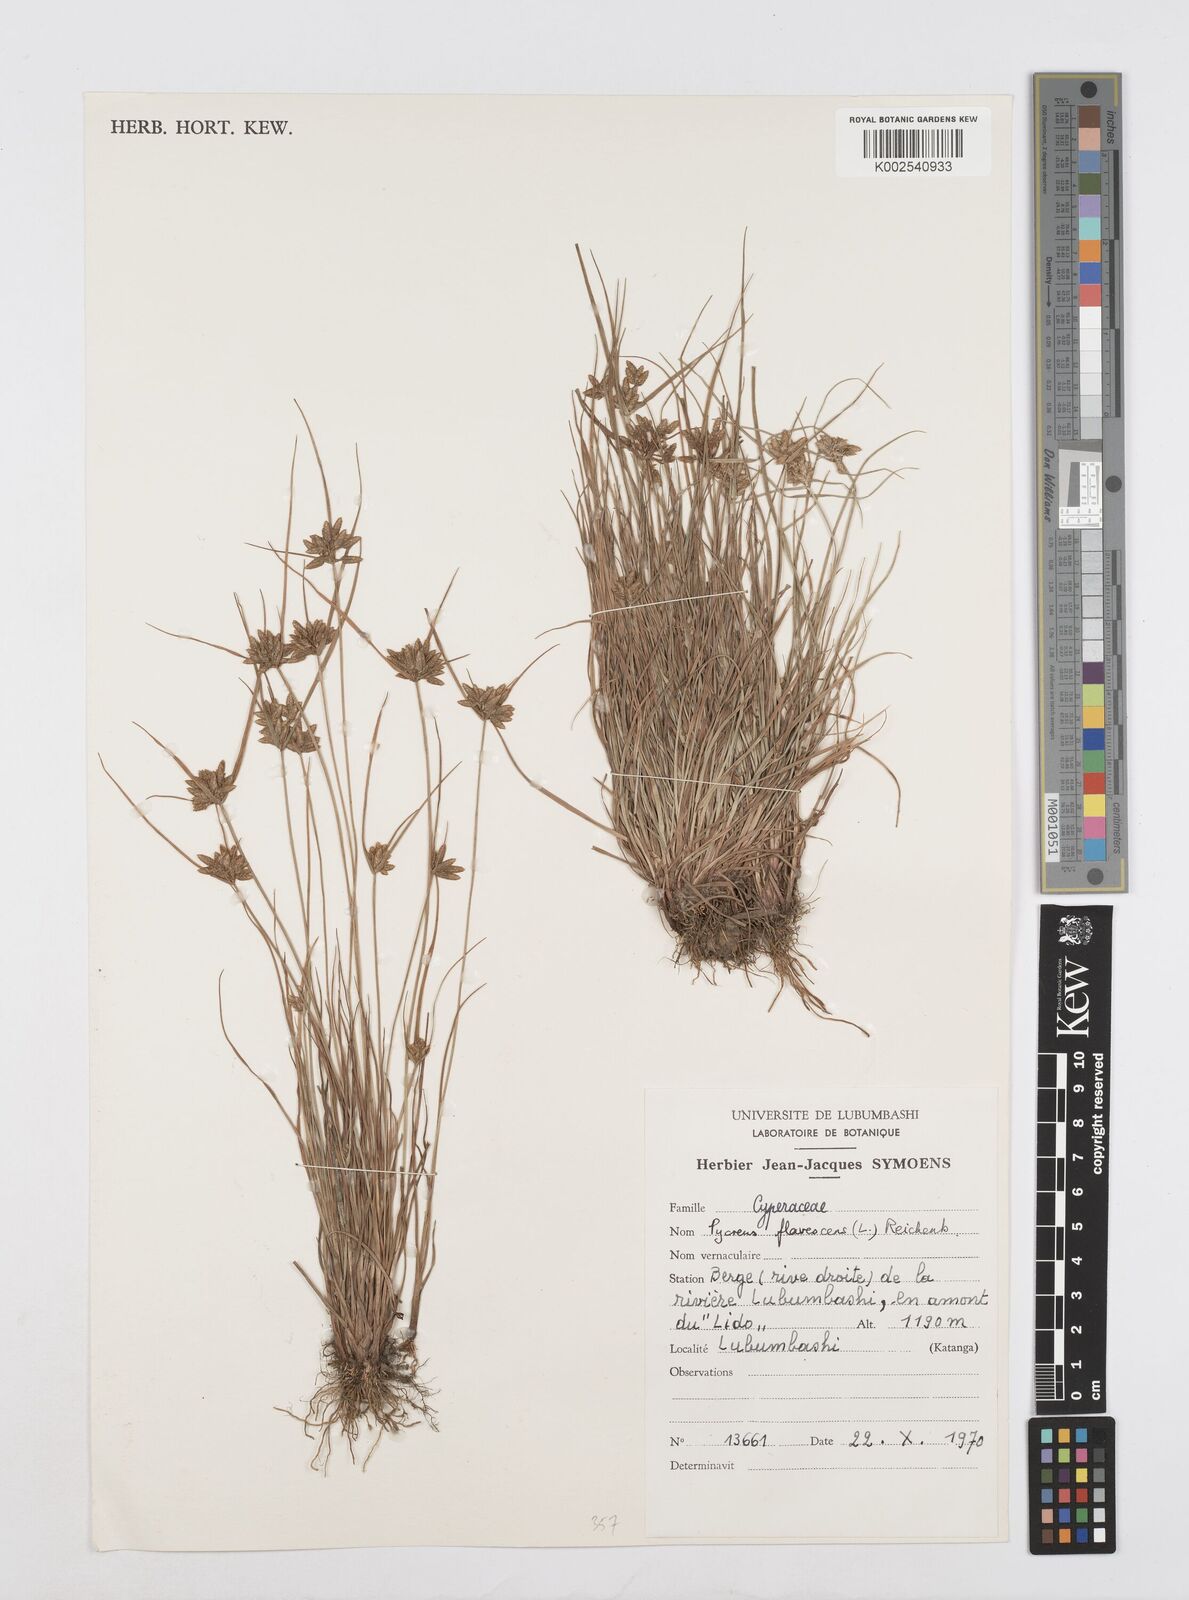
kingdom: Plantae
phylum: Tracheophyta
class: Liliopsida
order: Poales
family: Cyperaceae
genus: Cyperus
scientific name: Cyperus flavescens
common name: Yellow galingale
